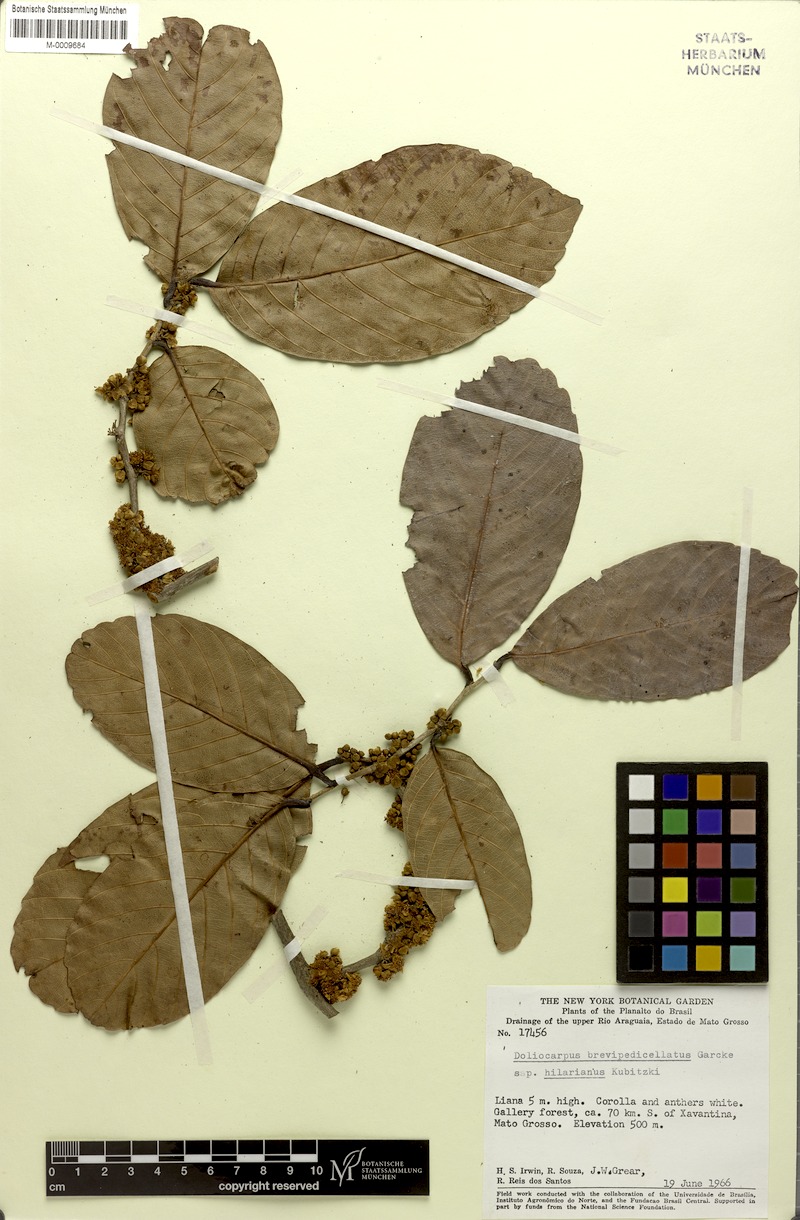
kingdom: Plantae
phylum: Tracheophyta
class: Magnoliopsida
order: Dilleniales
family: Dilleniaceae
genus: Doliocarpus
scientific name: Doliocarpus hilarianus
